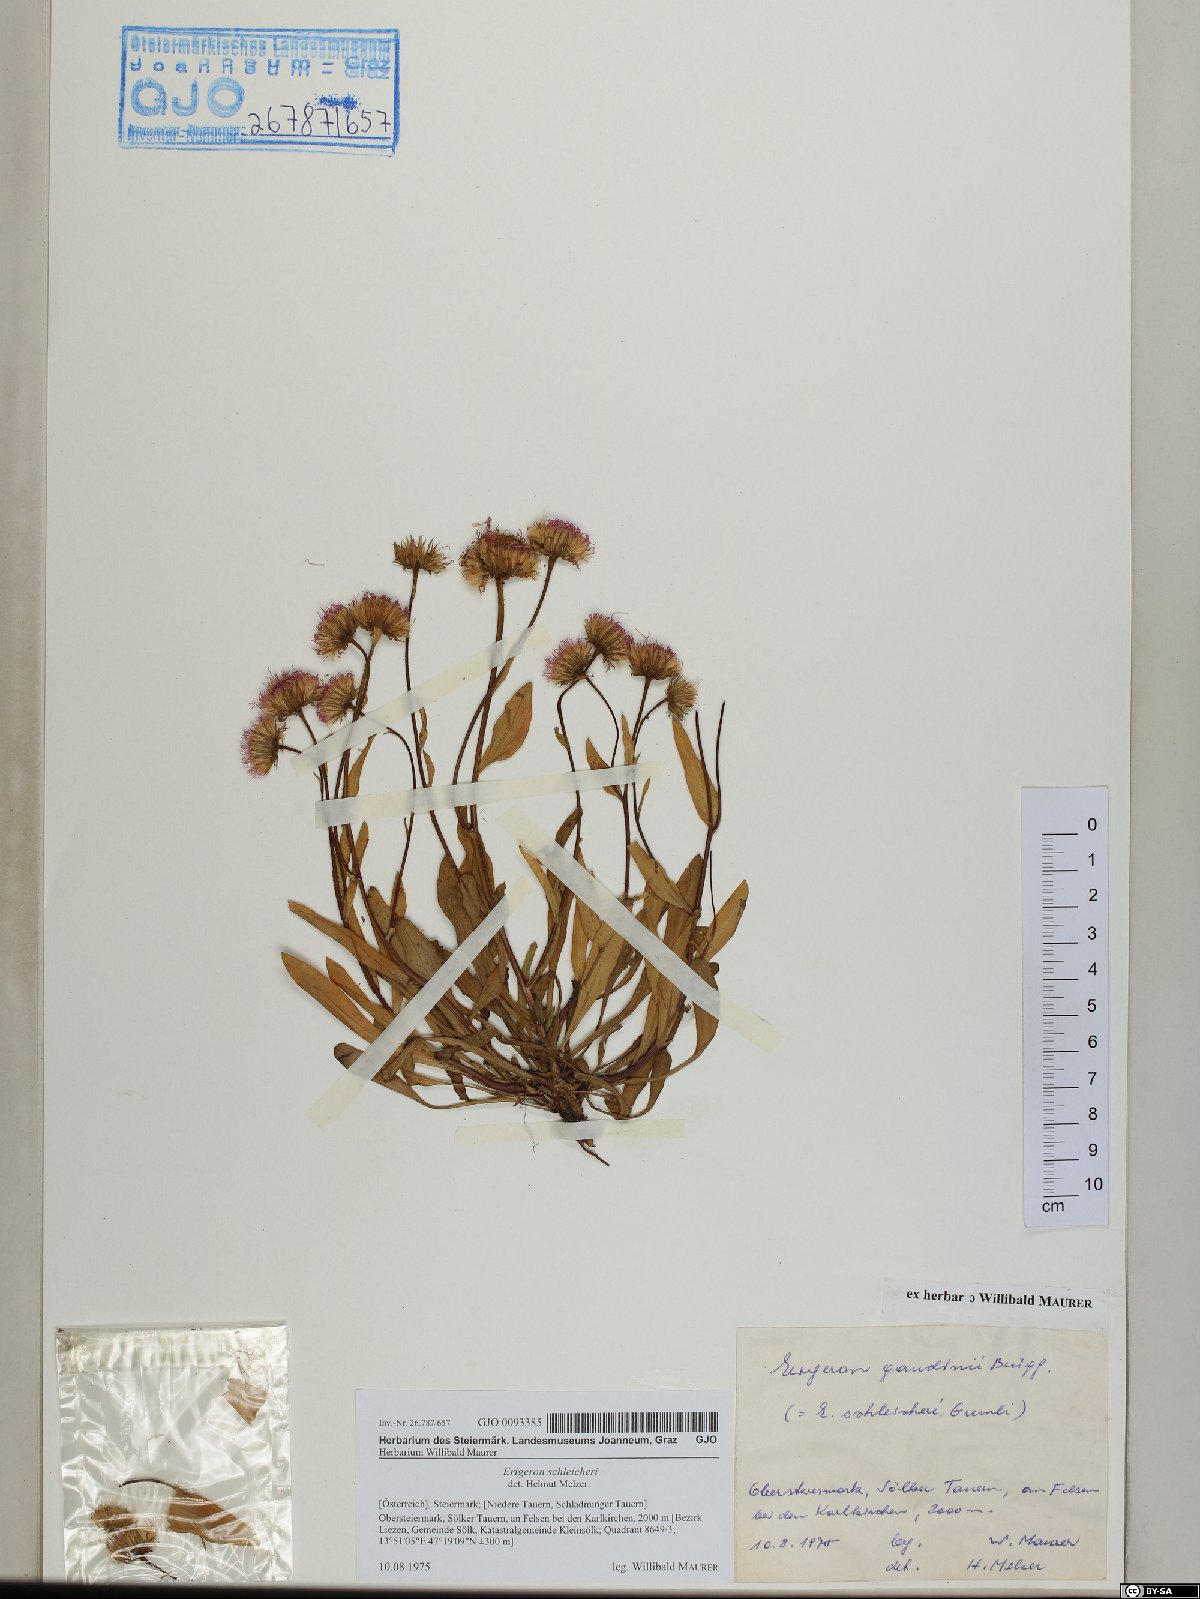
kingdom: Plantae
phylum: Tracheophyta
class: Magnoliopsida
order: Asterales
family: Asteraceae
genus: Erigeron
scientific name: Erigeron schleicheri
